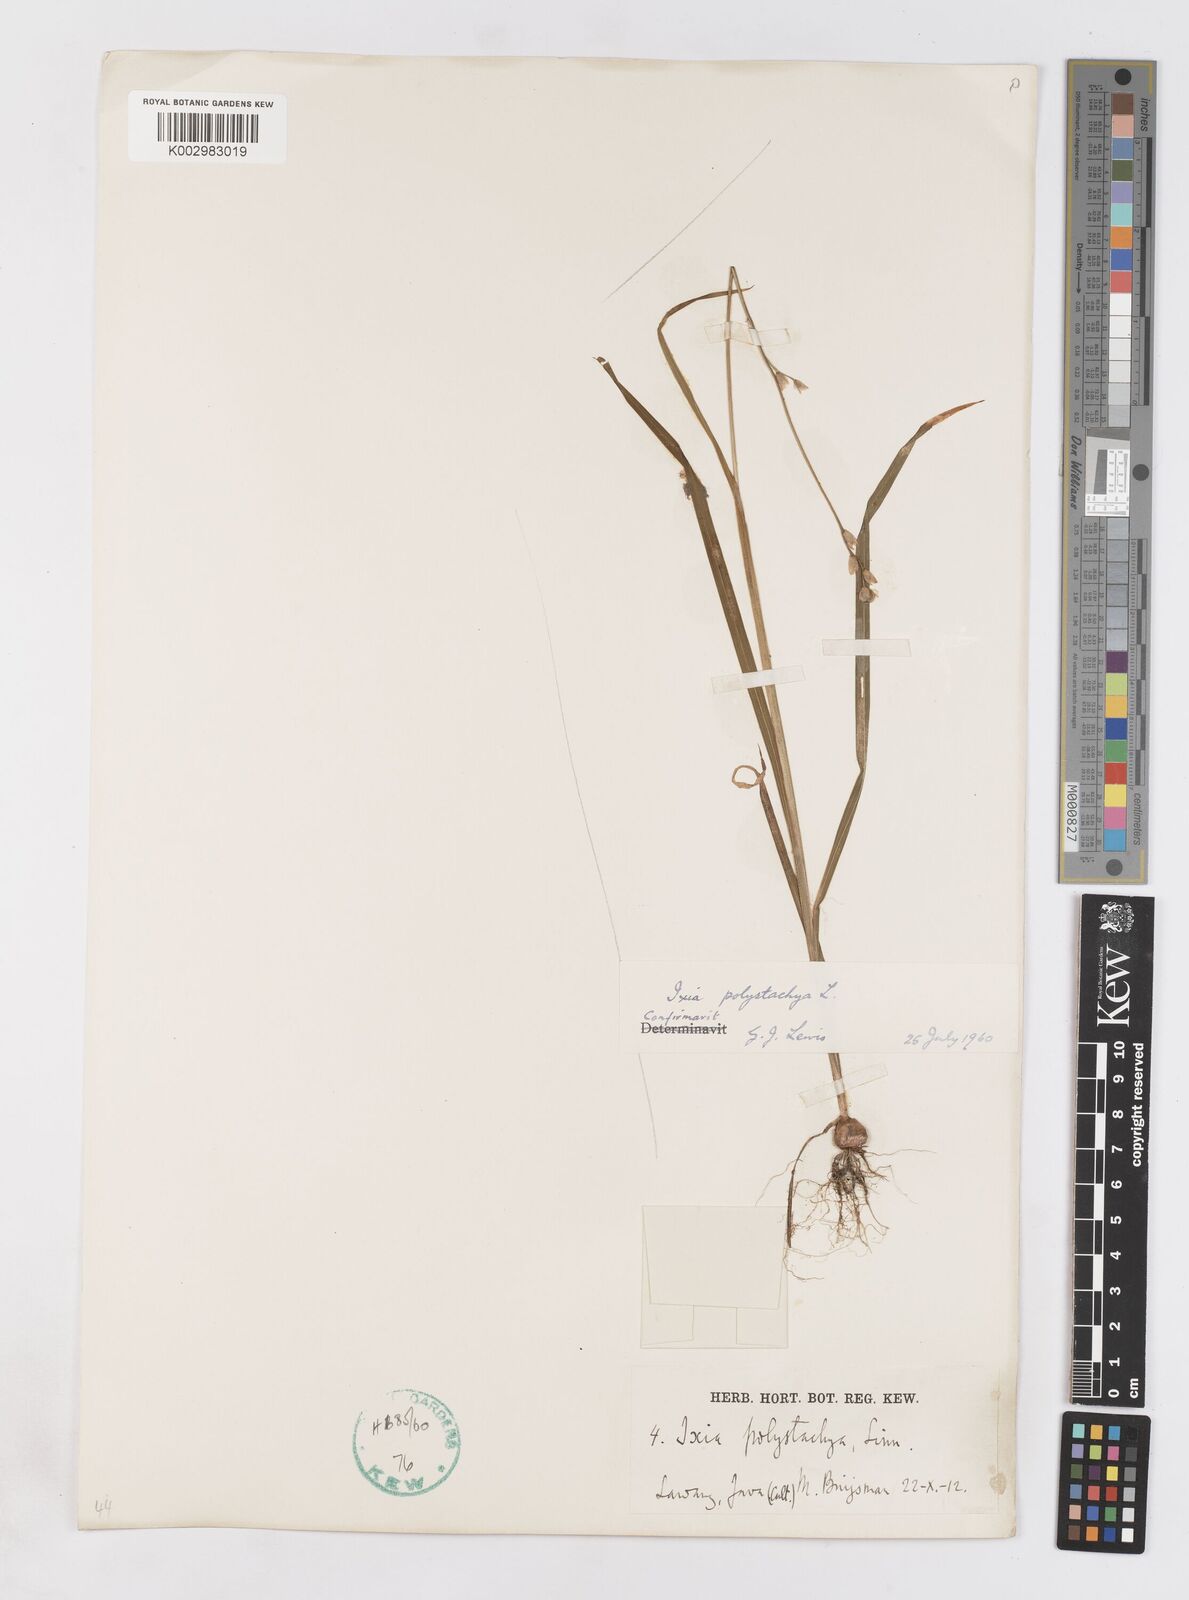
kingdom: Plantae
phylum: Tracheophyta
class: Liliopsida
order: Asparagales
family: Iridaceae
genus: Ixia
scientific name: Ixia polystachya
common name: White-and-yellow-flower cornlily
